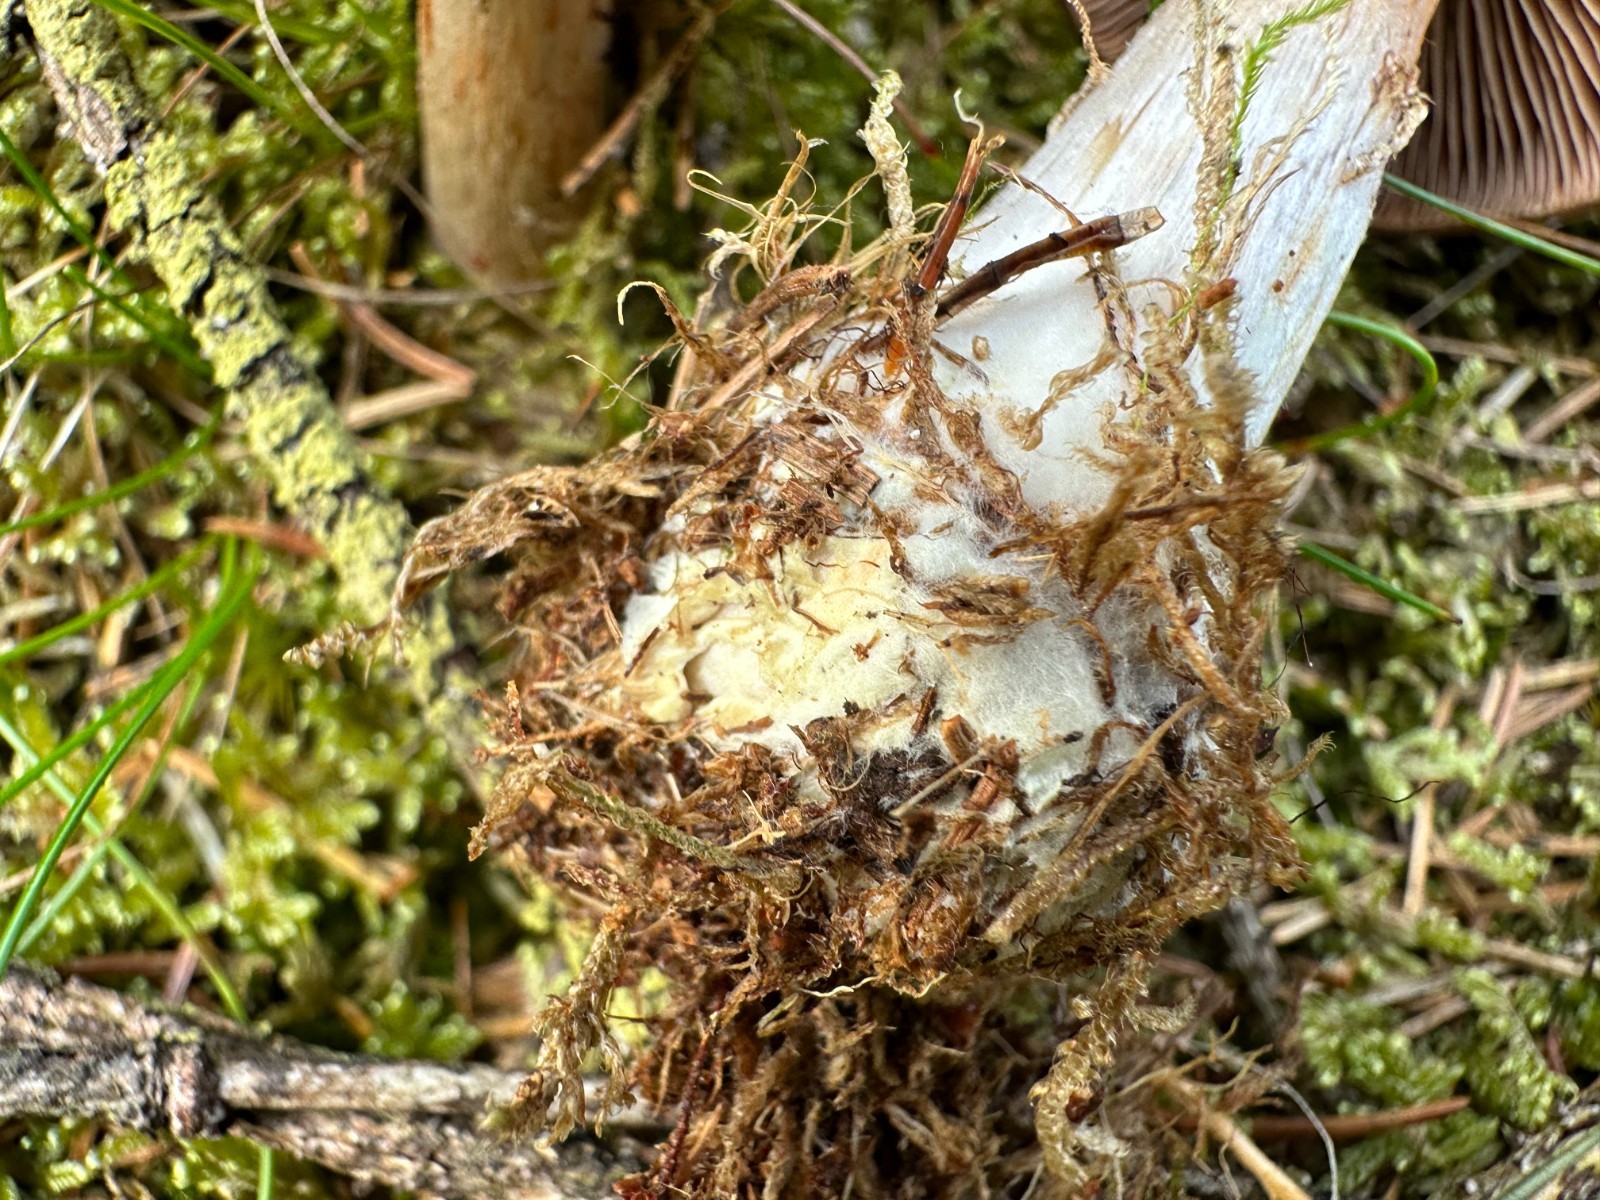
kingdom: Fungi
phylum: Basidiomycota
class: Agaricomycetes
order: Agaricales
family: Cortinariaceae
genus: Thaxterogaster
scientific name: Thaxterogaster sphagnophilus
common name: vandplettet slørhat
